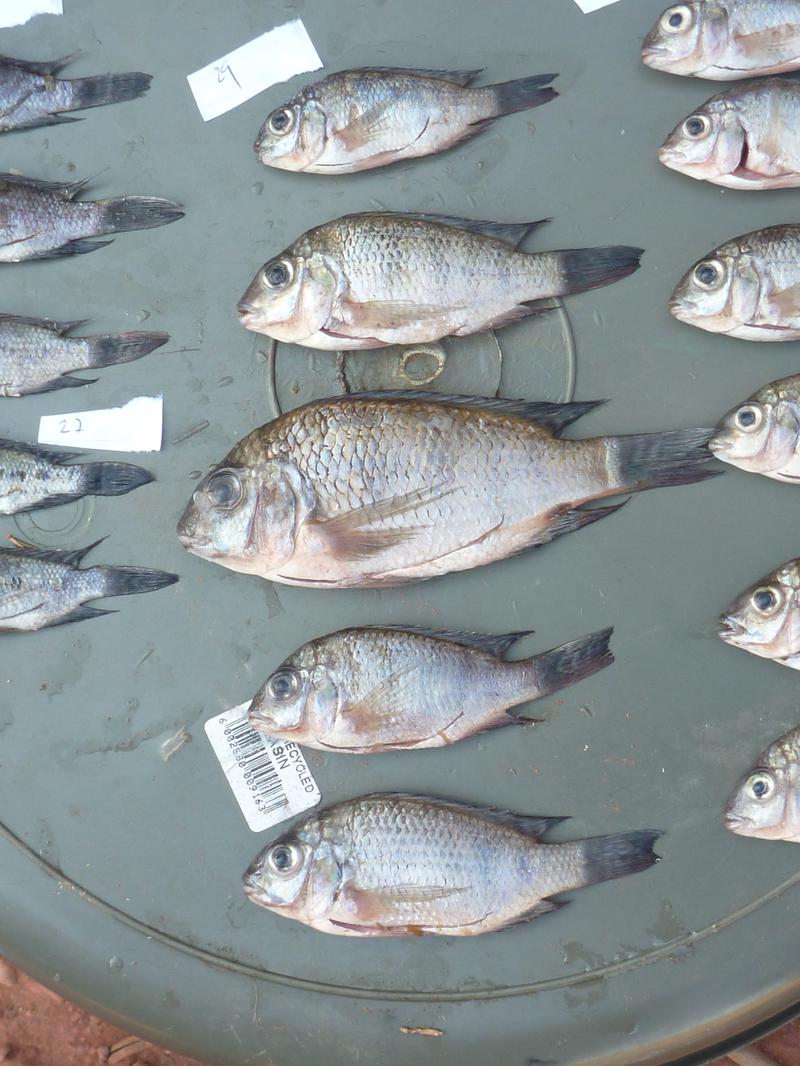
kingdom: Animalia
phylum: Chordata
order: Perciformes
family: Cichlidae
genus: Oreochromis
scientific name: Oreochromis korogwe
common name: Korogwe tilapia
